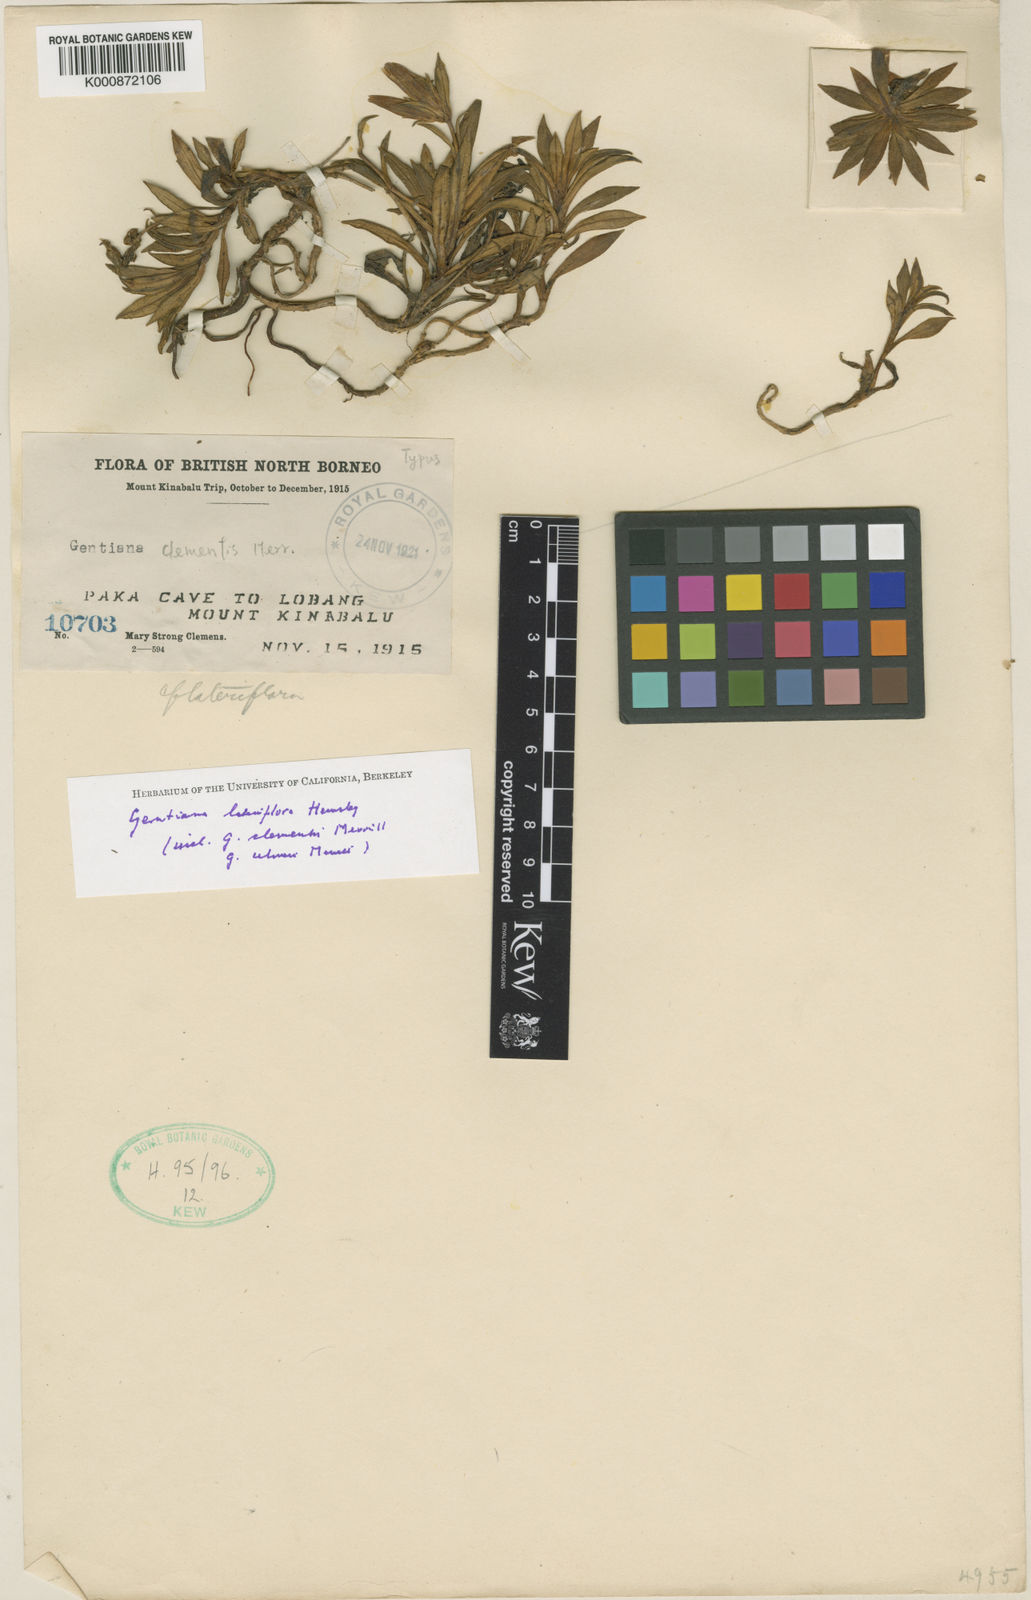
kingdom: Plantae
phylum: Tracheophyta
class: Magnoliopsida
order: Gentianales
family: Gentianaceae
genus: Gentiana
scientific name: Gentiana jarmilae
